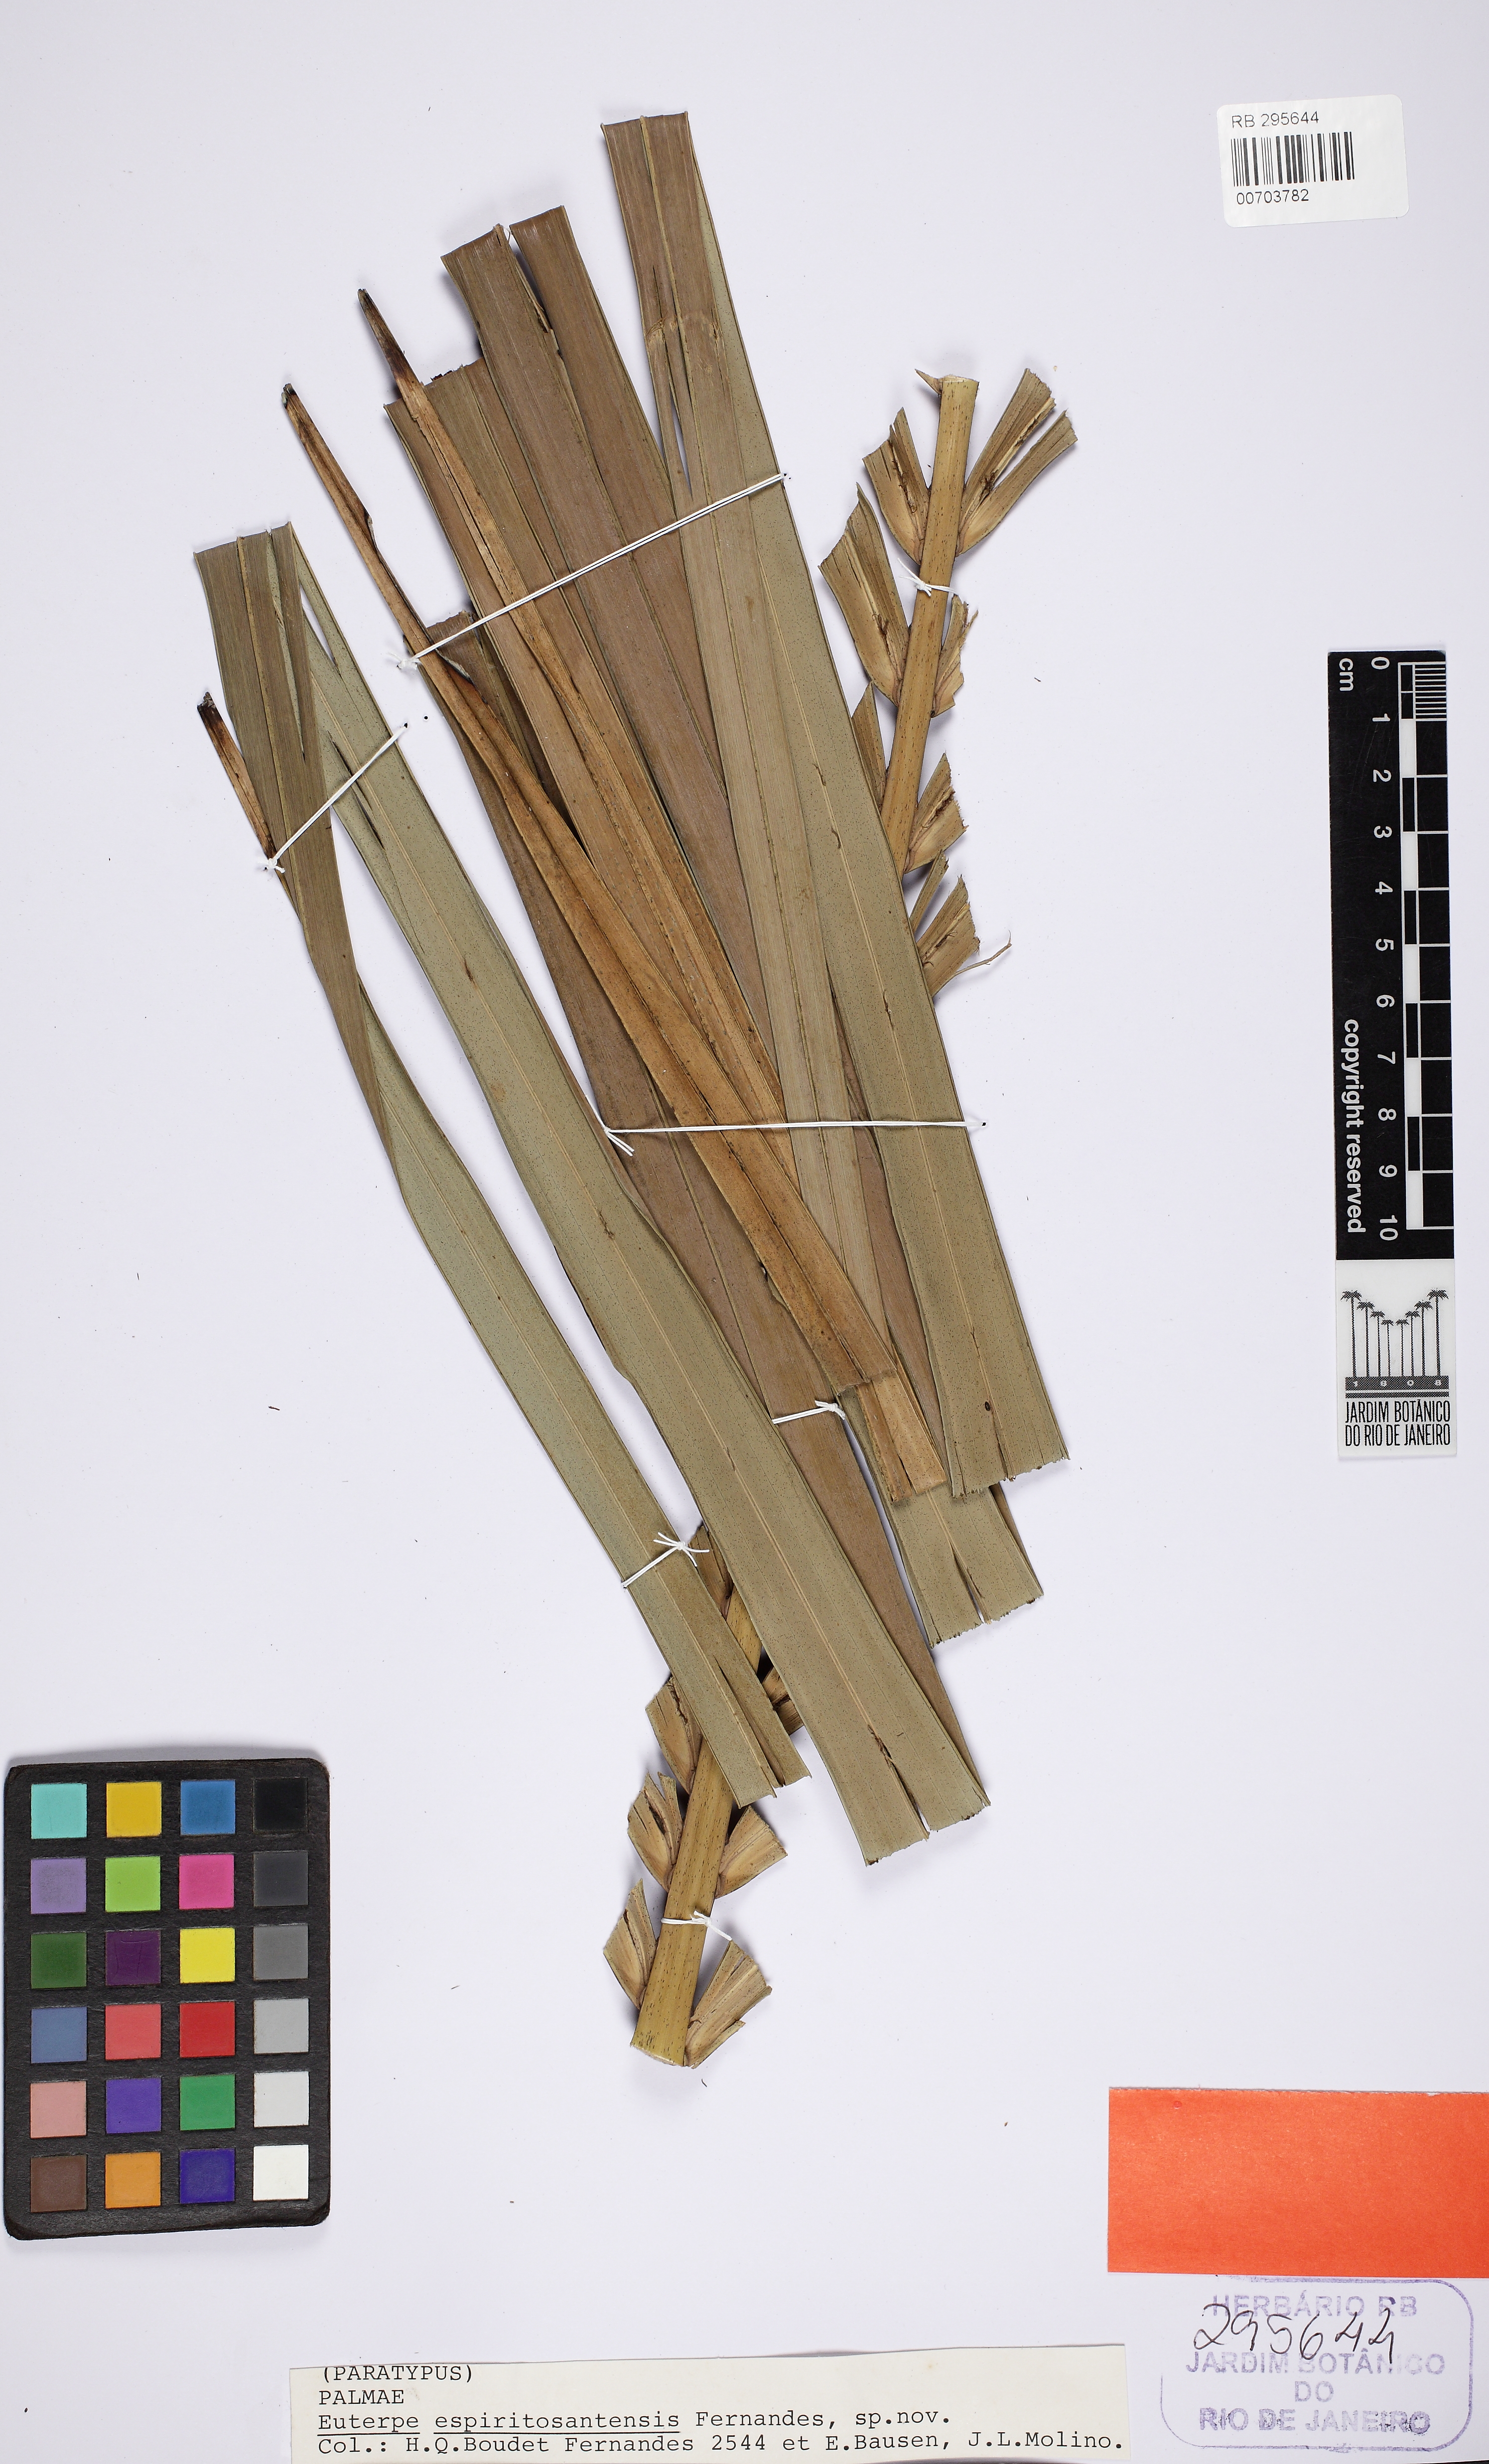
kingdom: Plantae
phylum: Tracheophyta
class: Liliopsida
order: Arecales
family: Arecaceae
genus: Euterpe
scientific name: Euterpe edulis
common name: Assai palm
